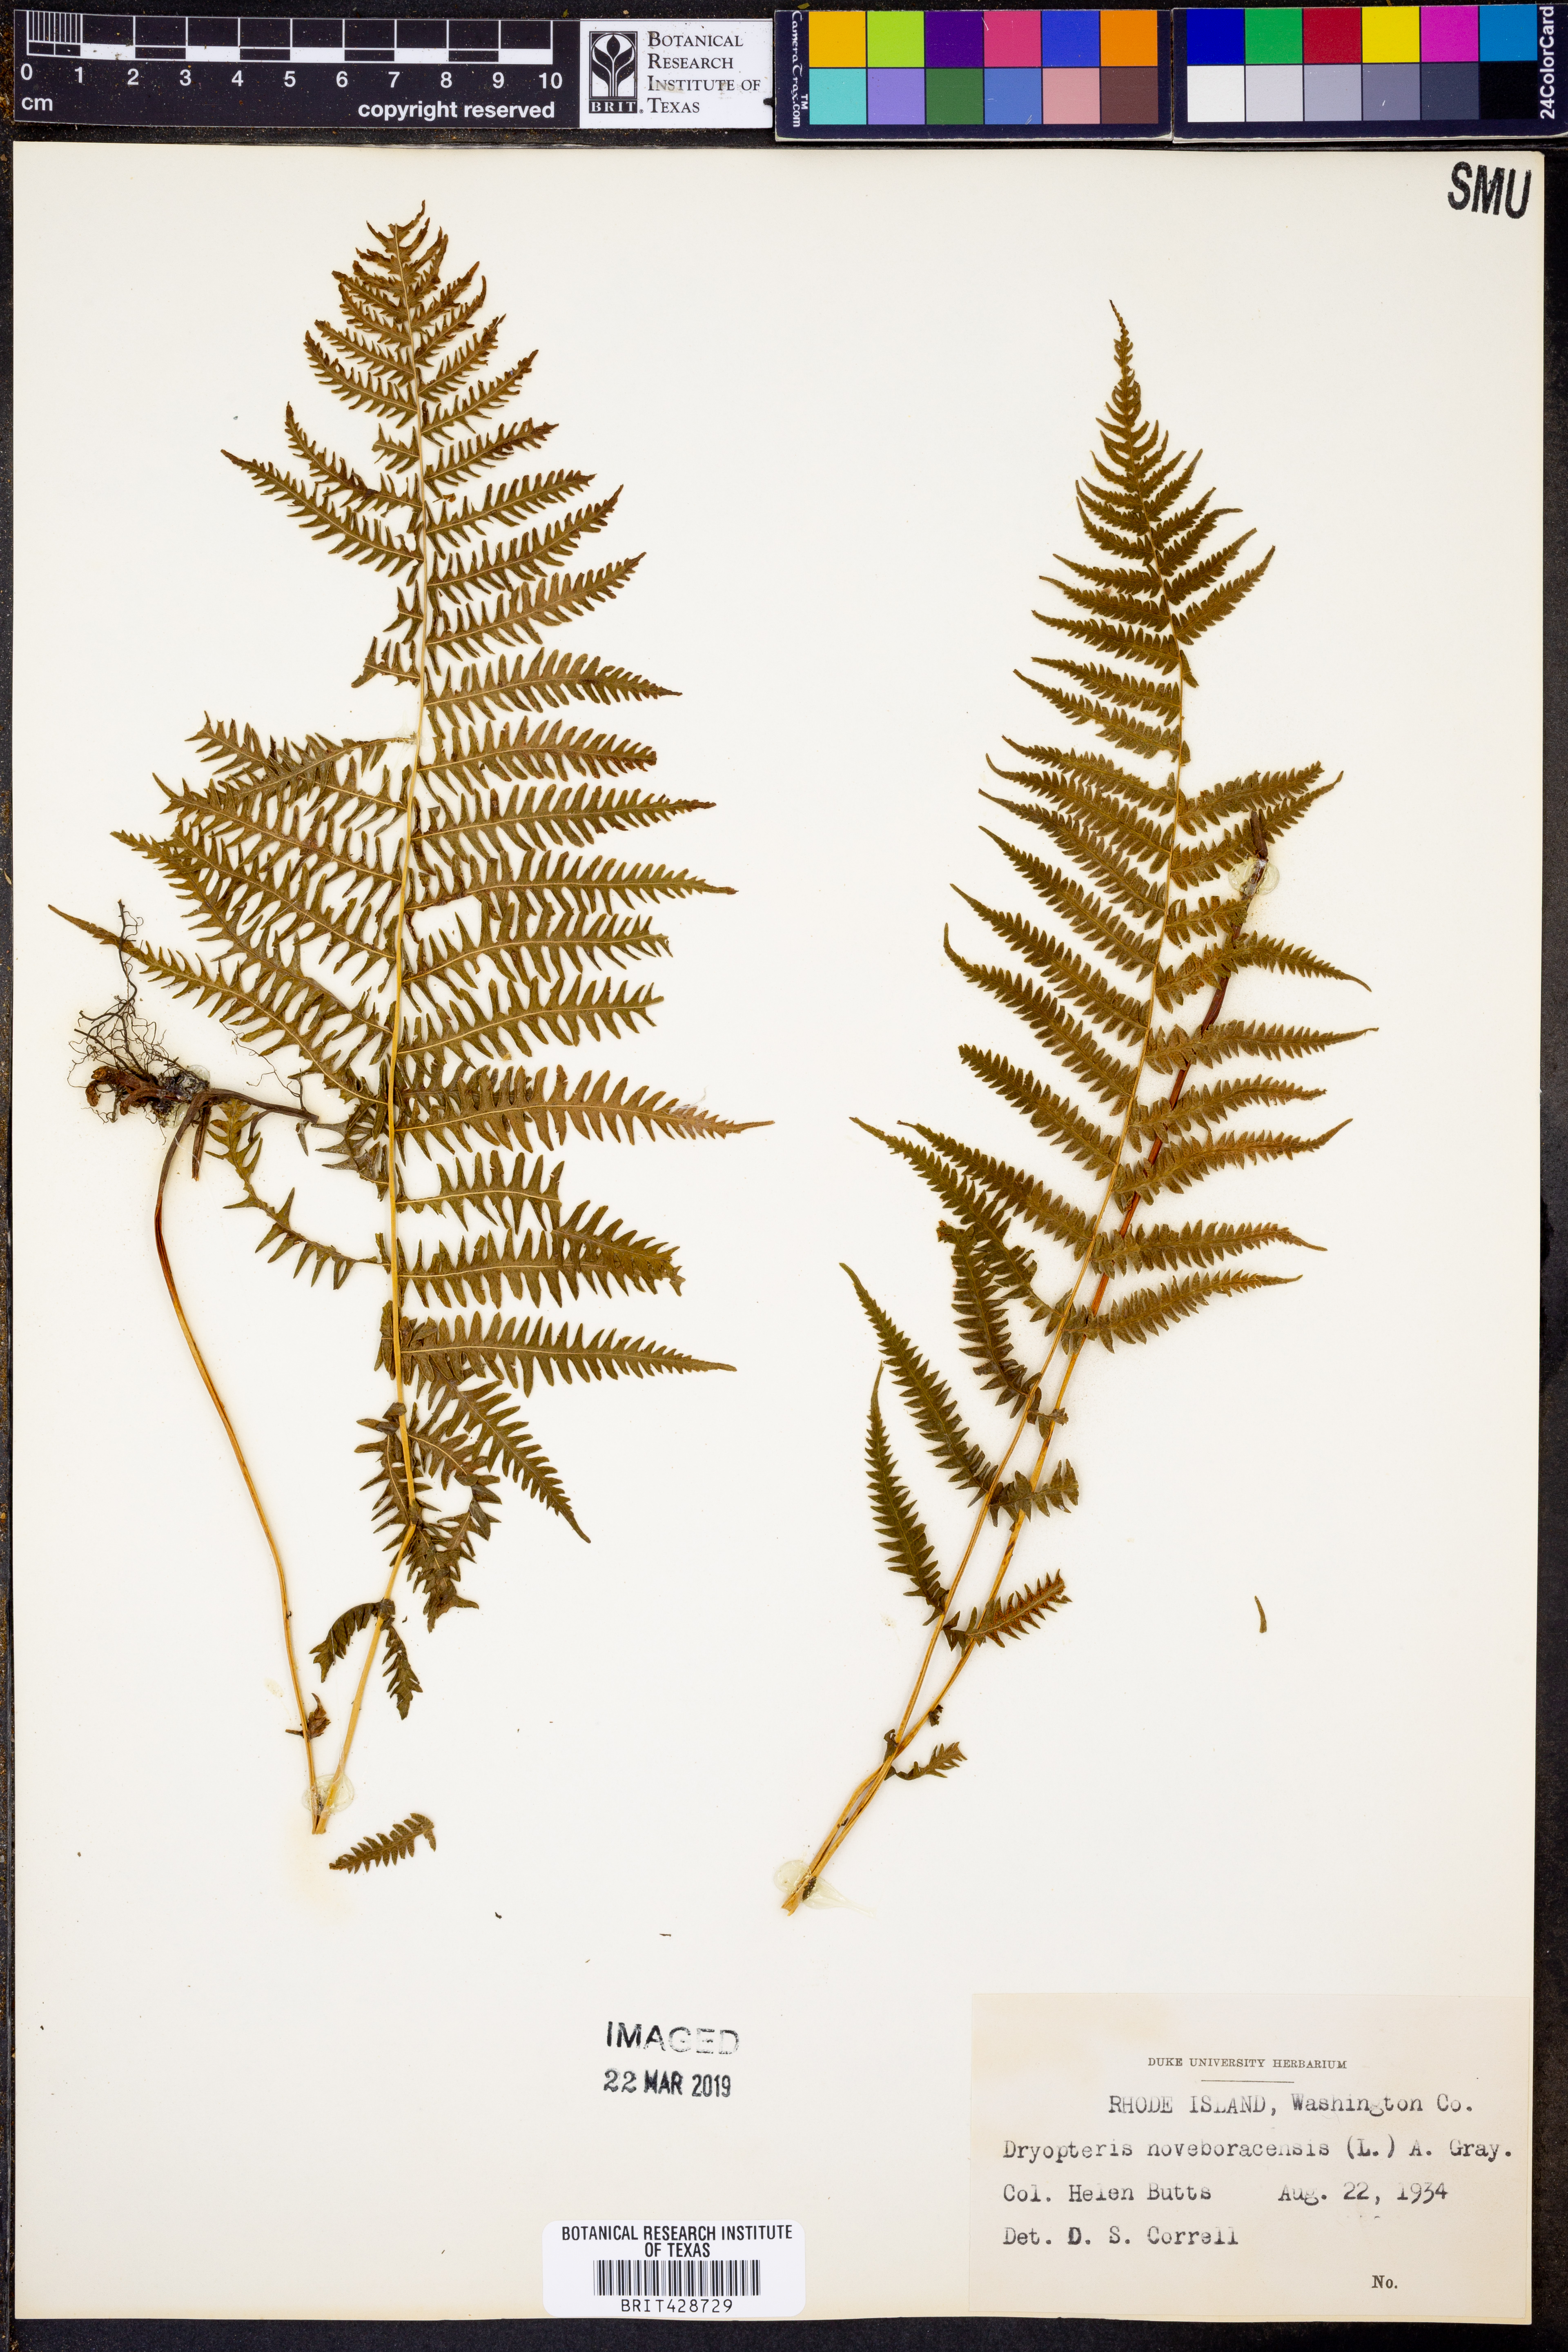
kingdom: Plantae
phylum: Tracheophyta
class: Polypodiopsida
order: Polypodiales
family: Thelypteridaceae
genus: Amauropelta
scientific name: Amauropelta noveboracensis
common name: New york fern
